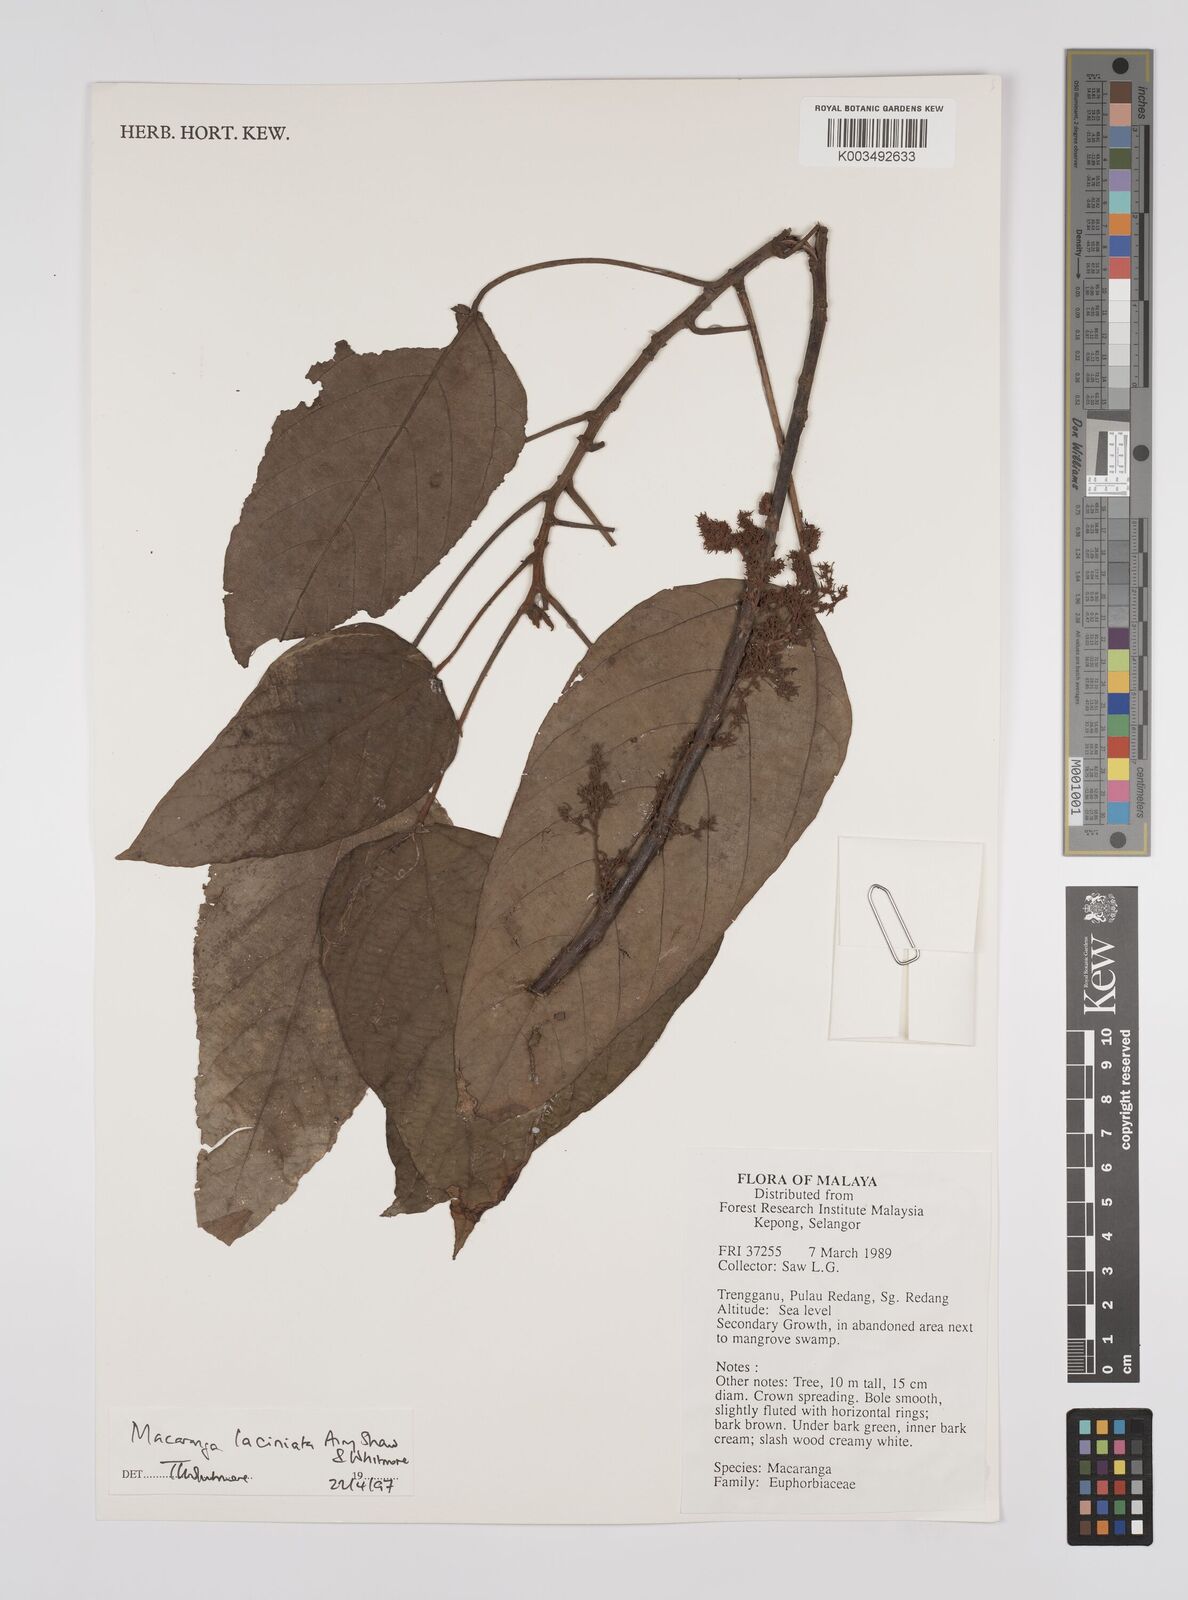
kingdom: Plantae
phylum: Tracheophyta
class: Magnoliopsida
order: Malpighiales
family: Euphorbiaceae
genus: Macaranga
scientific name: Macaranga laciniata
